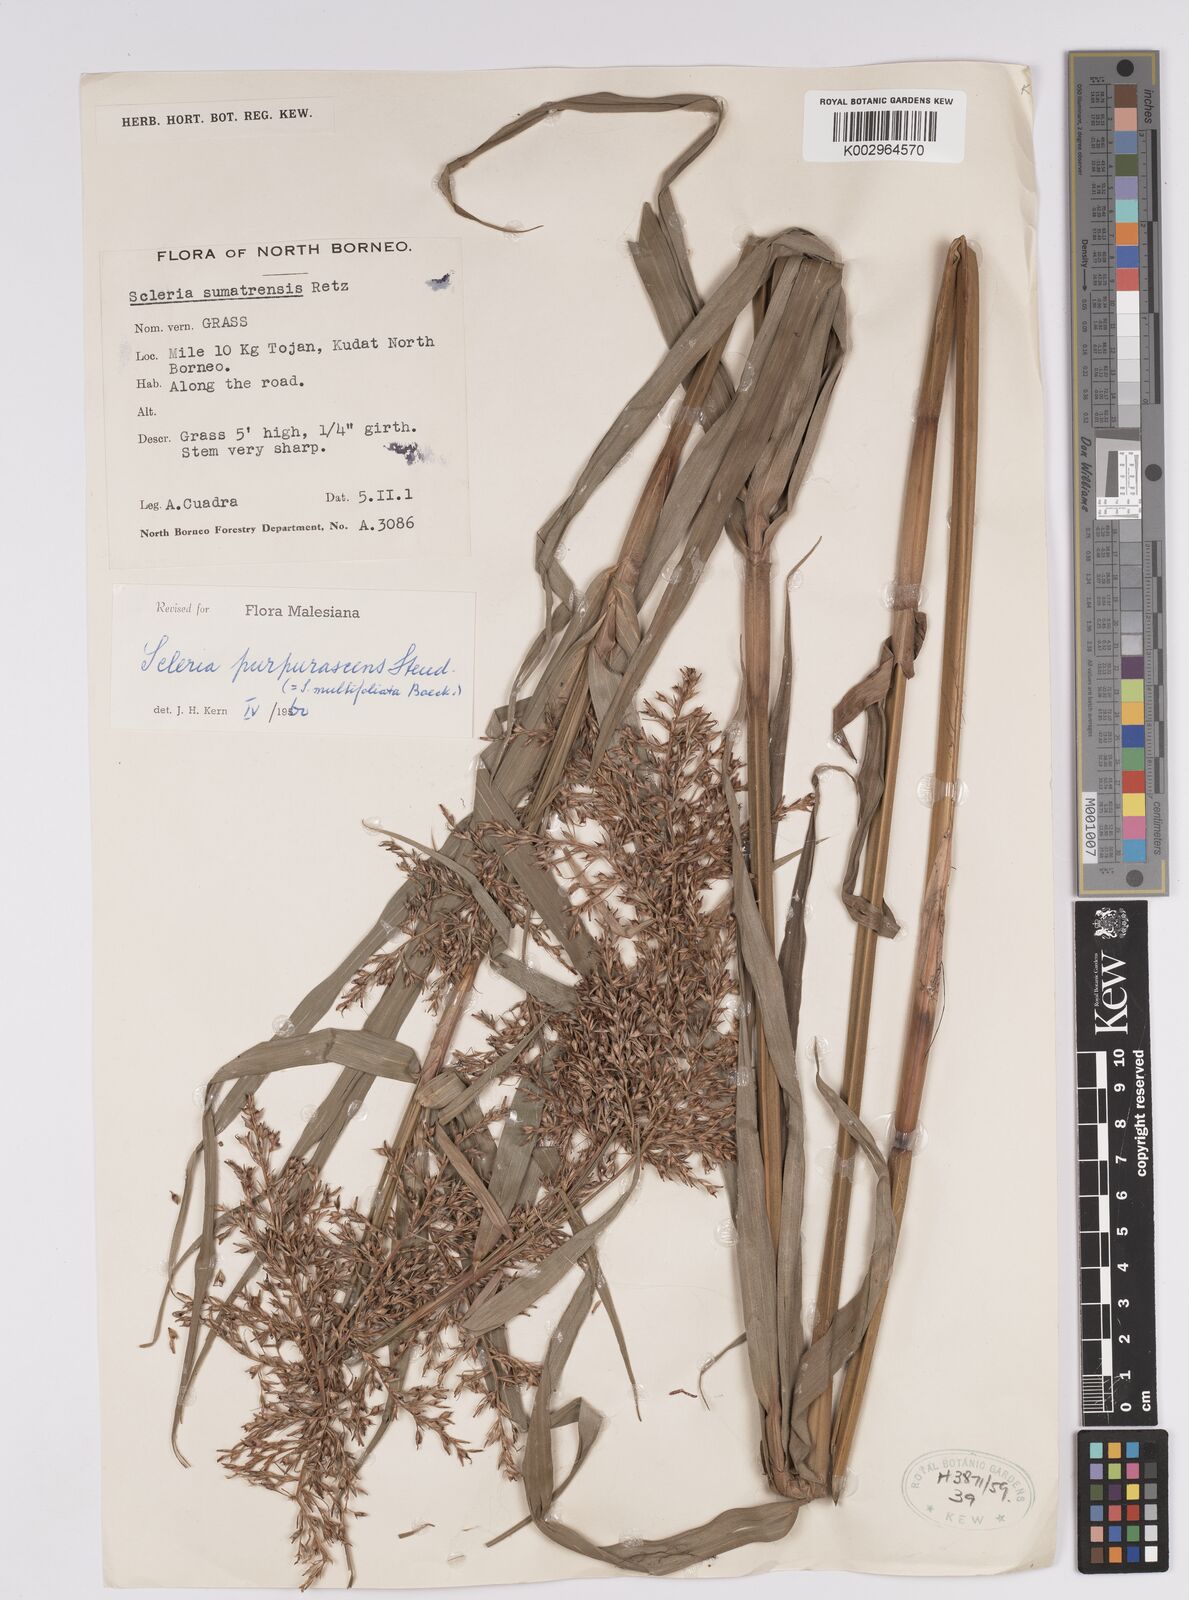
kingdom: Plantae
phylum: Tracheophyta
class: Liliopsida
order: Poales
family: Cyperaceae
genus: Scleria
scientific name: Scleria purpurascens
